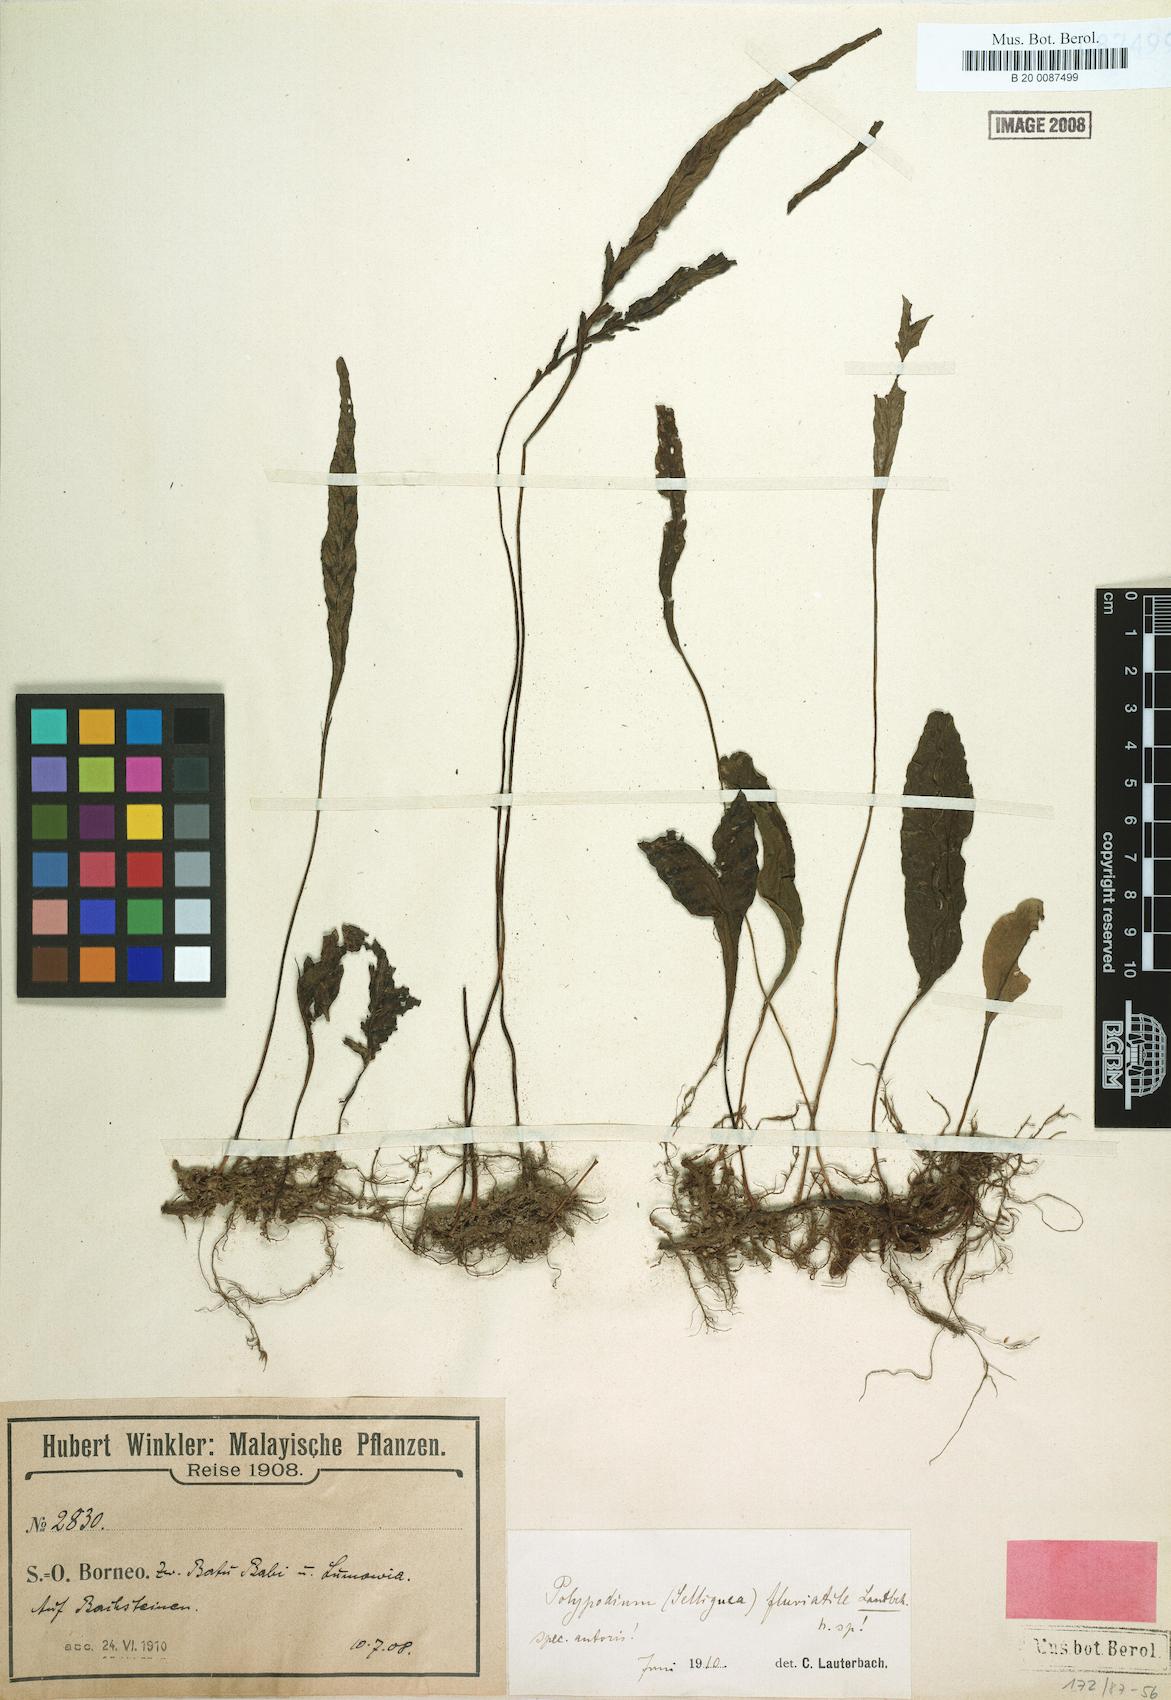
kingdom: Plantae
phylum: Tracheophyta
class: Polypodiopsida
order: Polypodiales
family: Polypodiaceae
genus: Leptochilus
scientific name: Leptochilus sarawakensis
